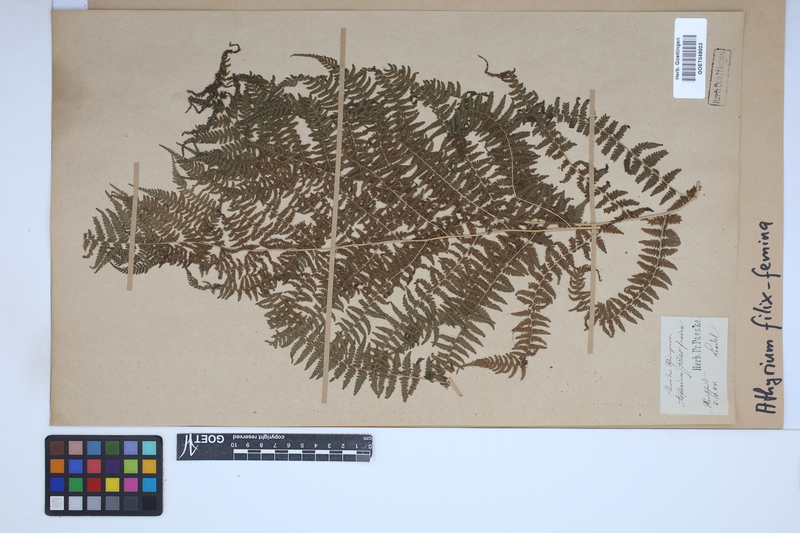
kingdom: Plantae
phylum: Tracheophyta
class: Polypodiopsida
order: Polypodiales
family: Athyriaceae
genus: Athyrium
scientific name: Athyrium filix-femina
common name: Lady fern
